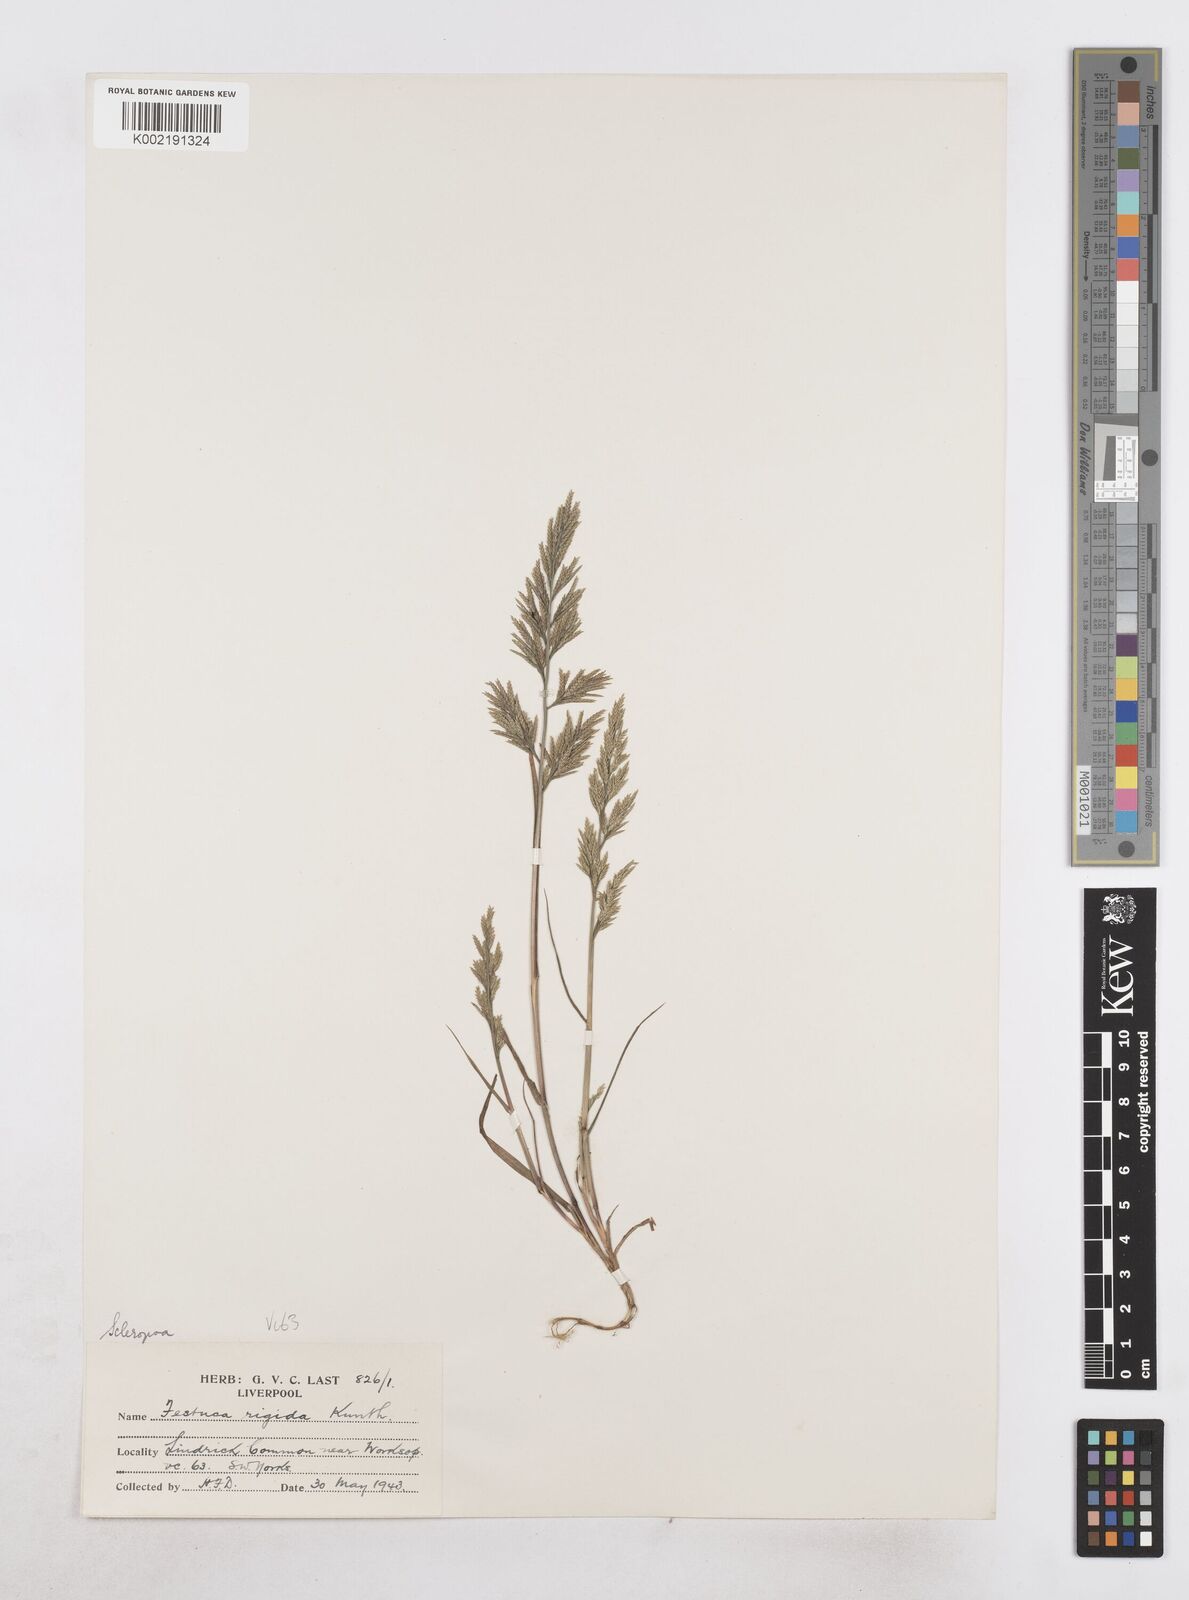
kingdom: Plantae
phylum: Tracheophyta
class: Liliopsida
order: Poales
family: Poaceae
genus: Catapodium
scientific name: Catapodium rigidum
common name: Fern-grass
